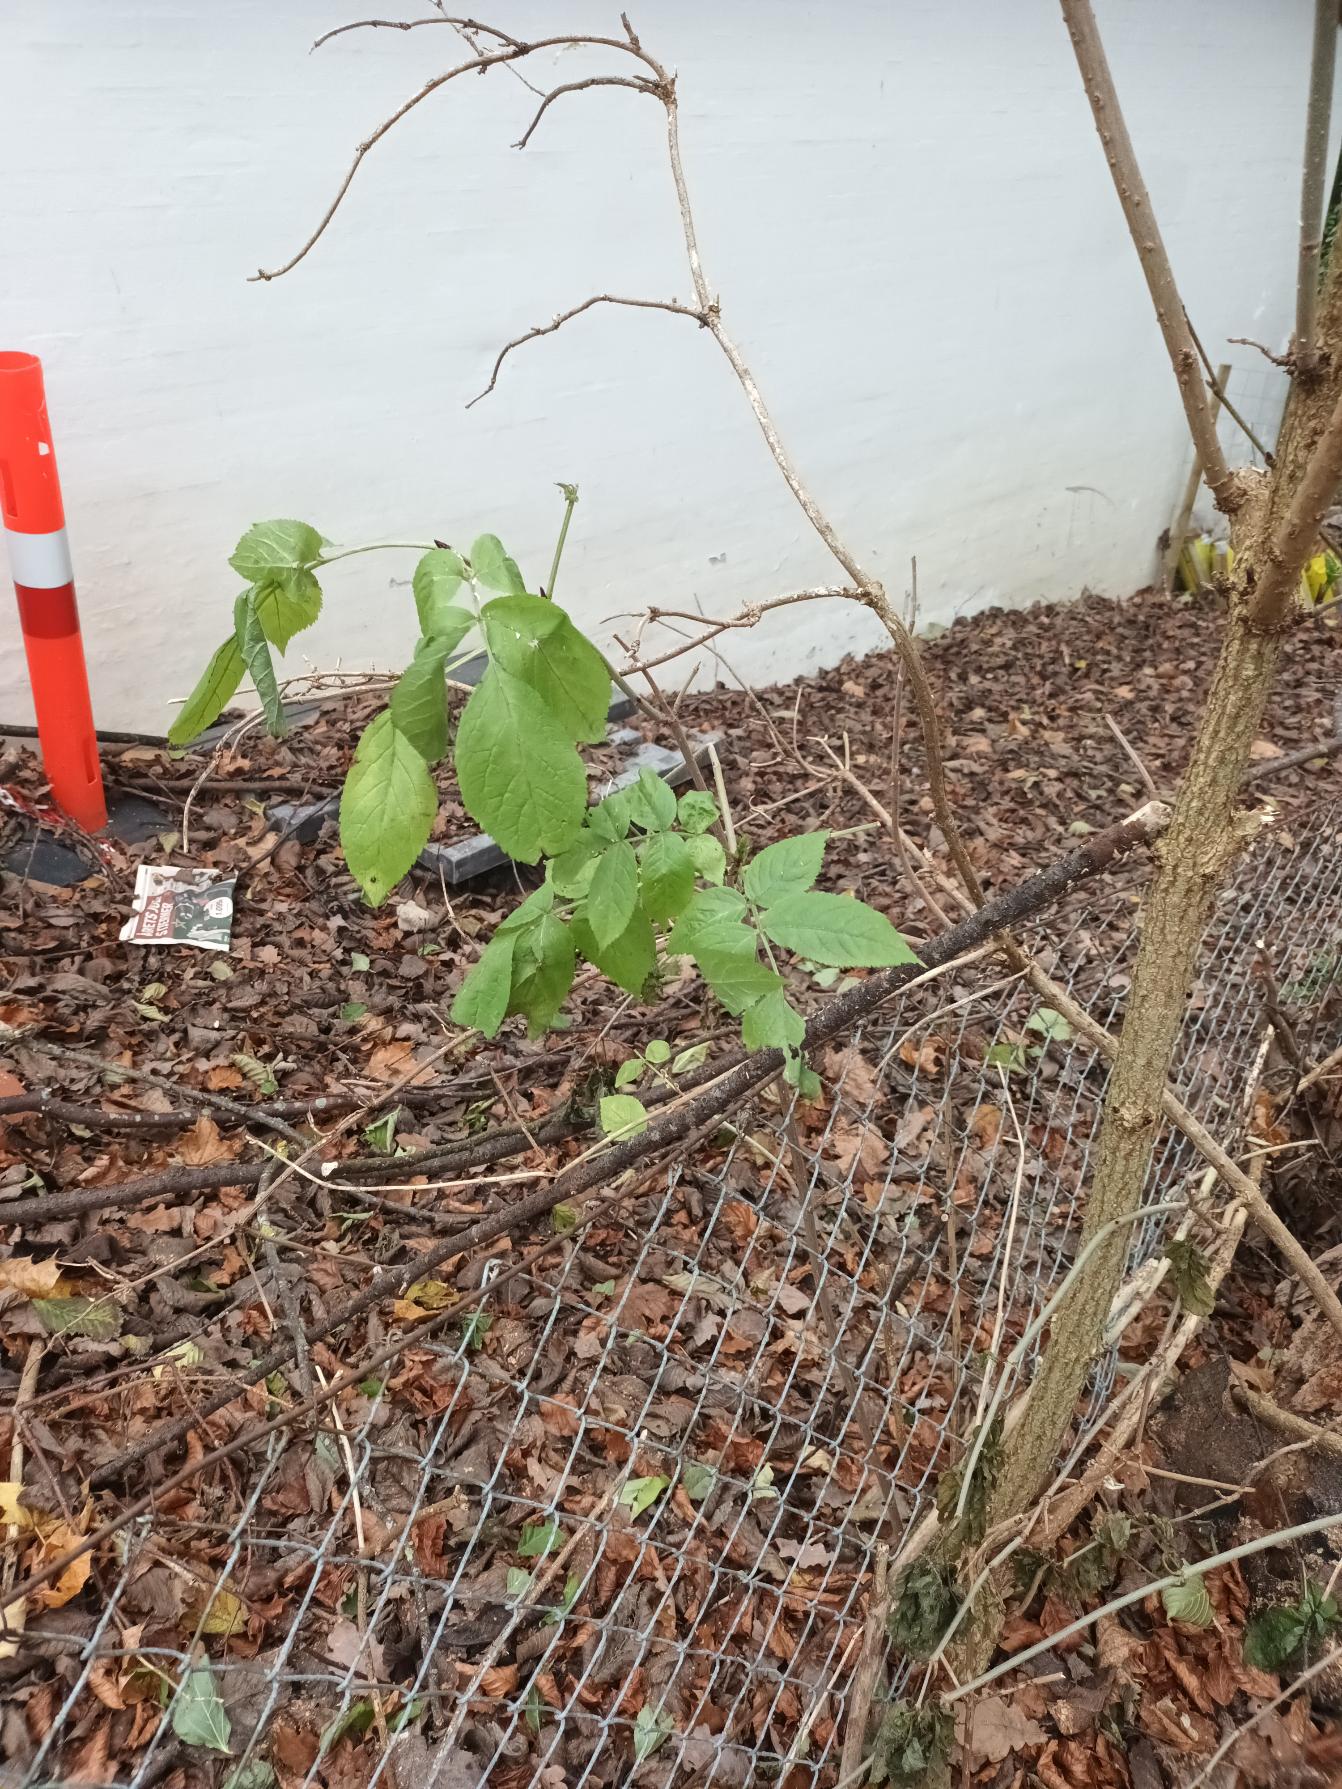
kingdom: Plantae
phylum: Tracheophyta
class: Magnoliopsida
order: Dipsacales
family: Viburnaceae
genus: Sambucus
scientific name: Sambucus nigra
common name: Almindelig hyld
